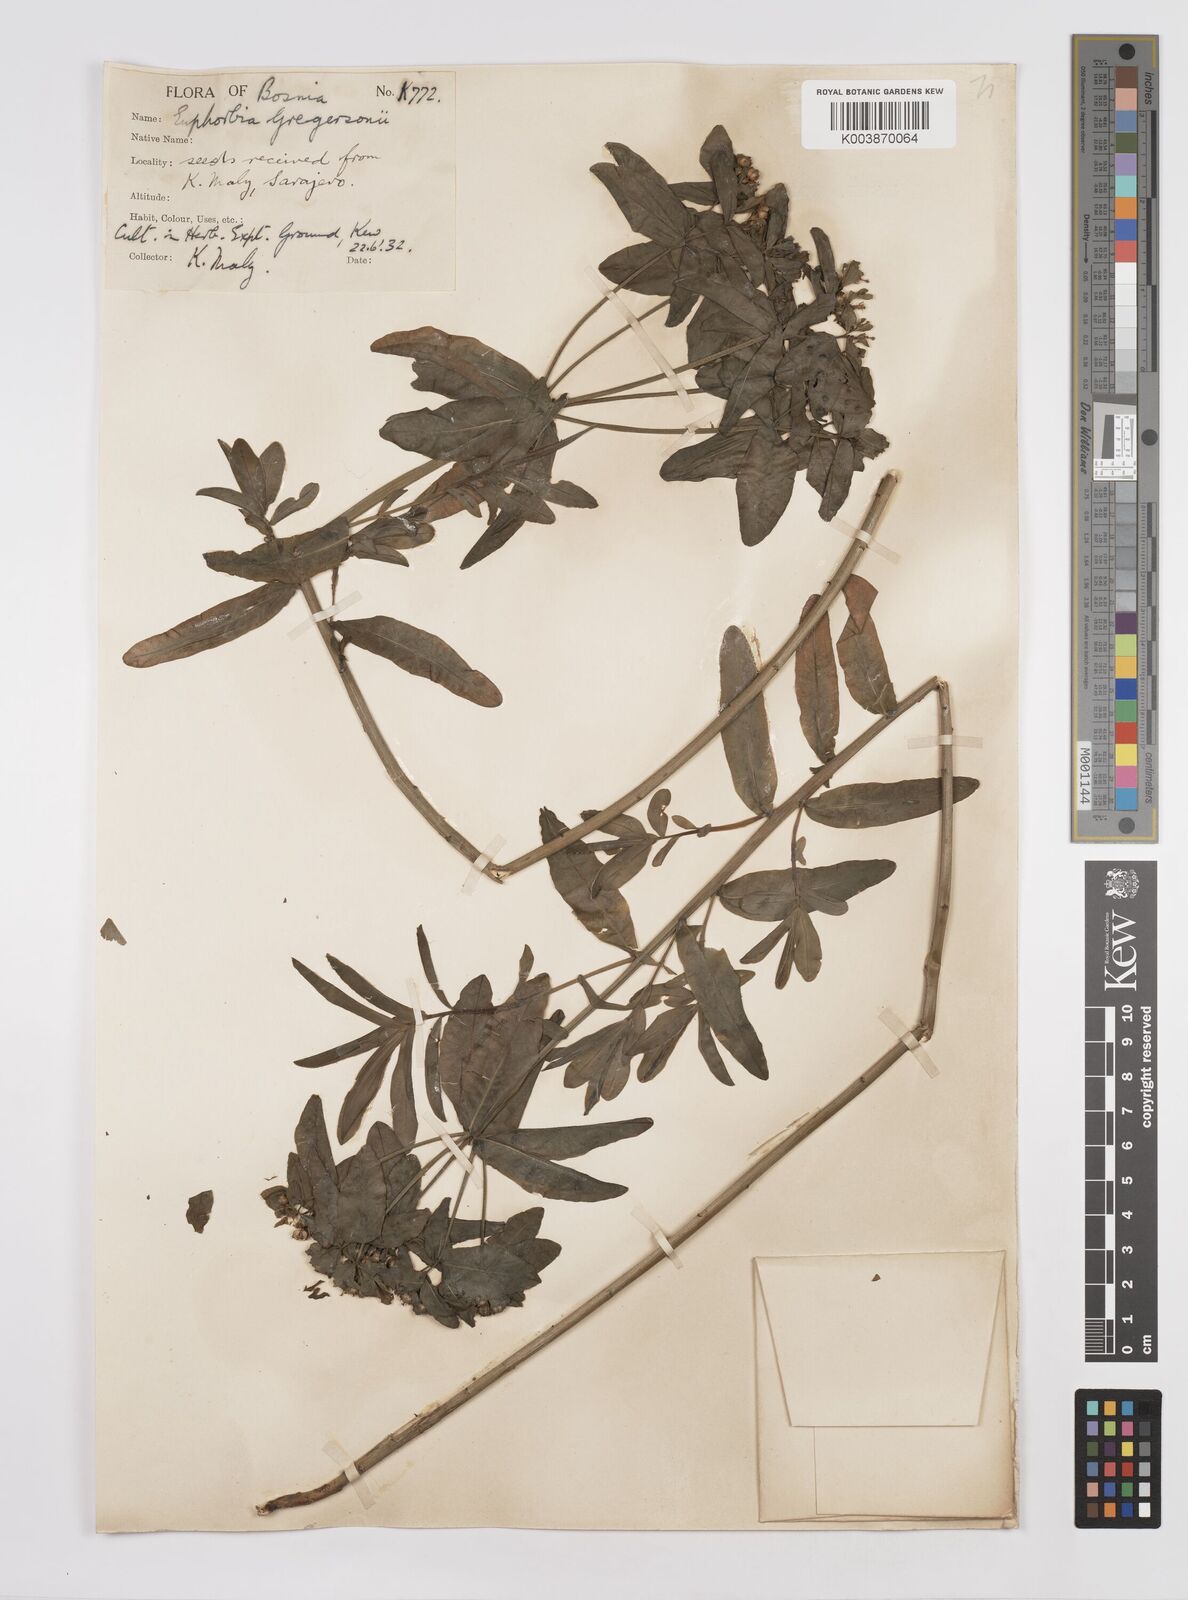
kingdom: Plantae
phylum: Tracheophyta
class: Magnoliopsida
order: Malpighiales
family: Euphorbiaceae
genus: Euphorbia
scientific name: Euphorbia gregersenii
